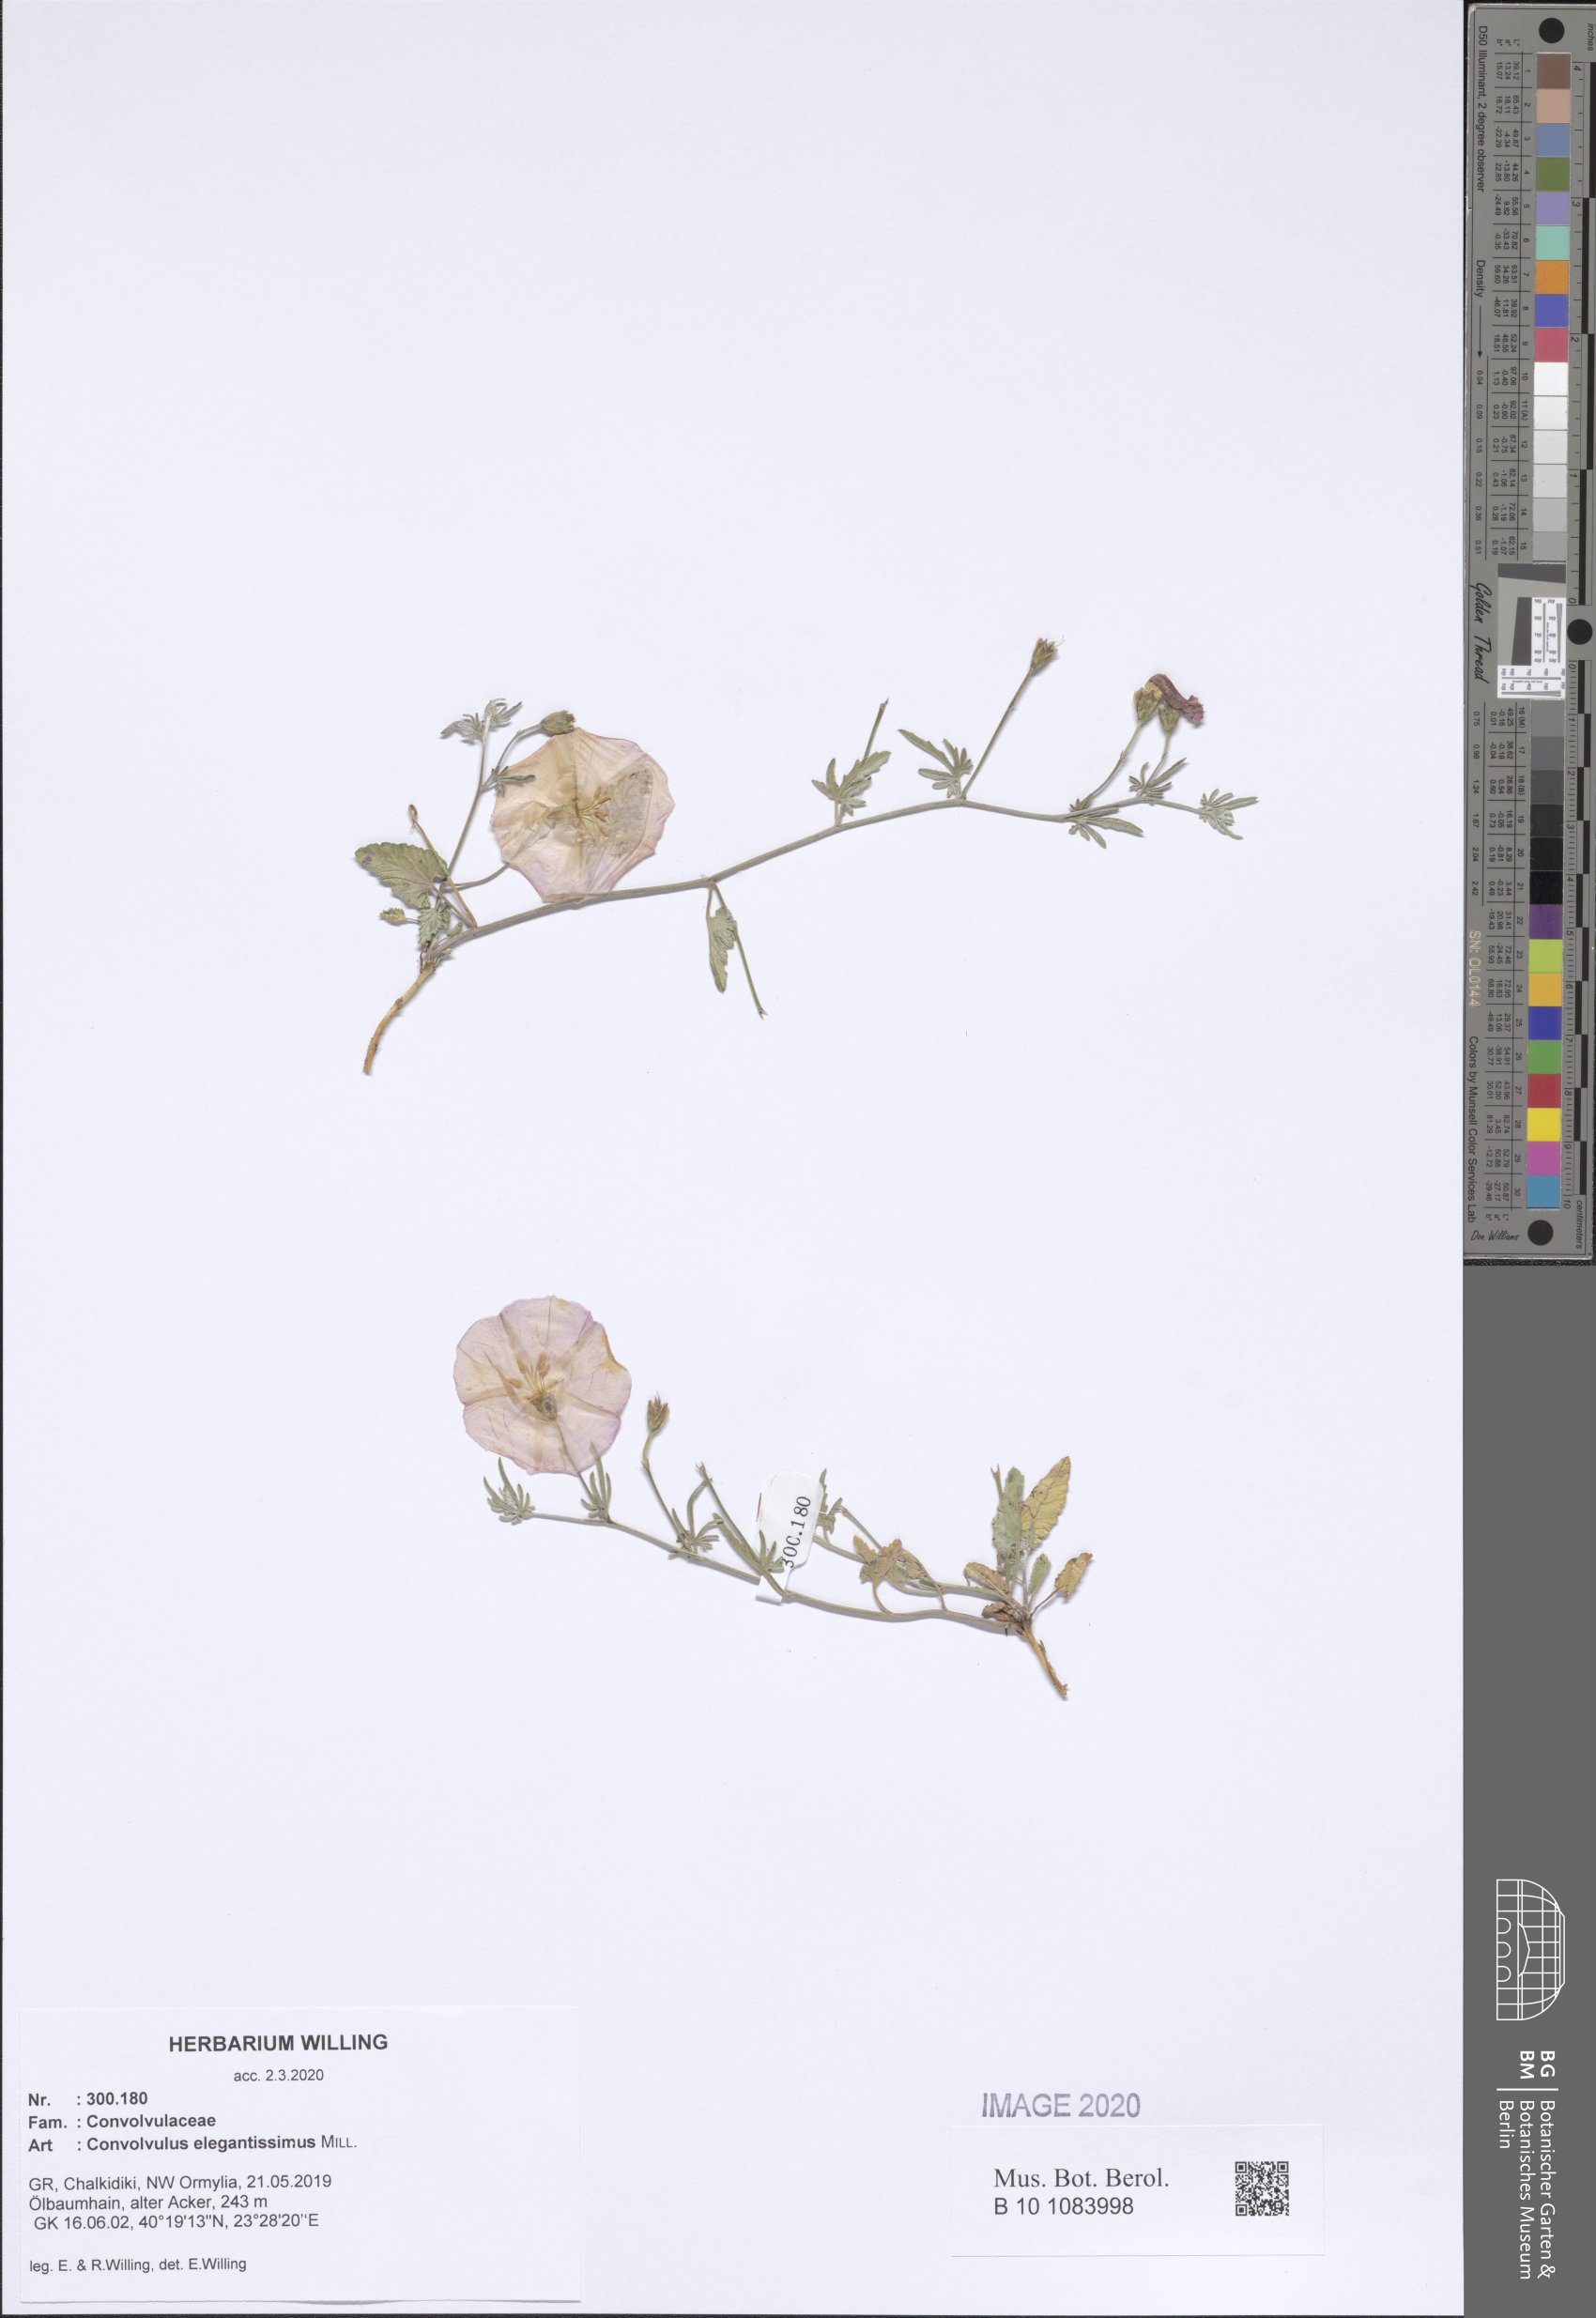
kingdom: Plantae
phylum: Tracheophyta
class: Magnoliopsida
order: Solanales
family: Convolvulaceae
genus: Convolvulus
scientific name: Convolvulus elegantissimus
